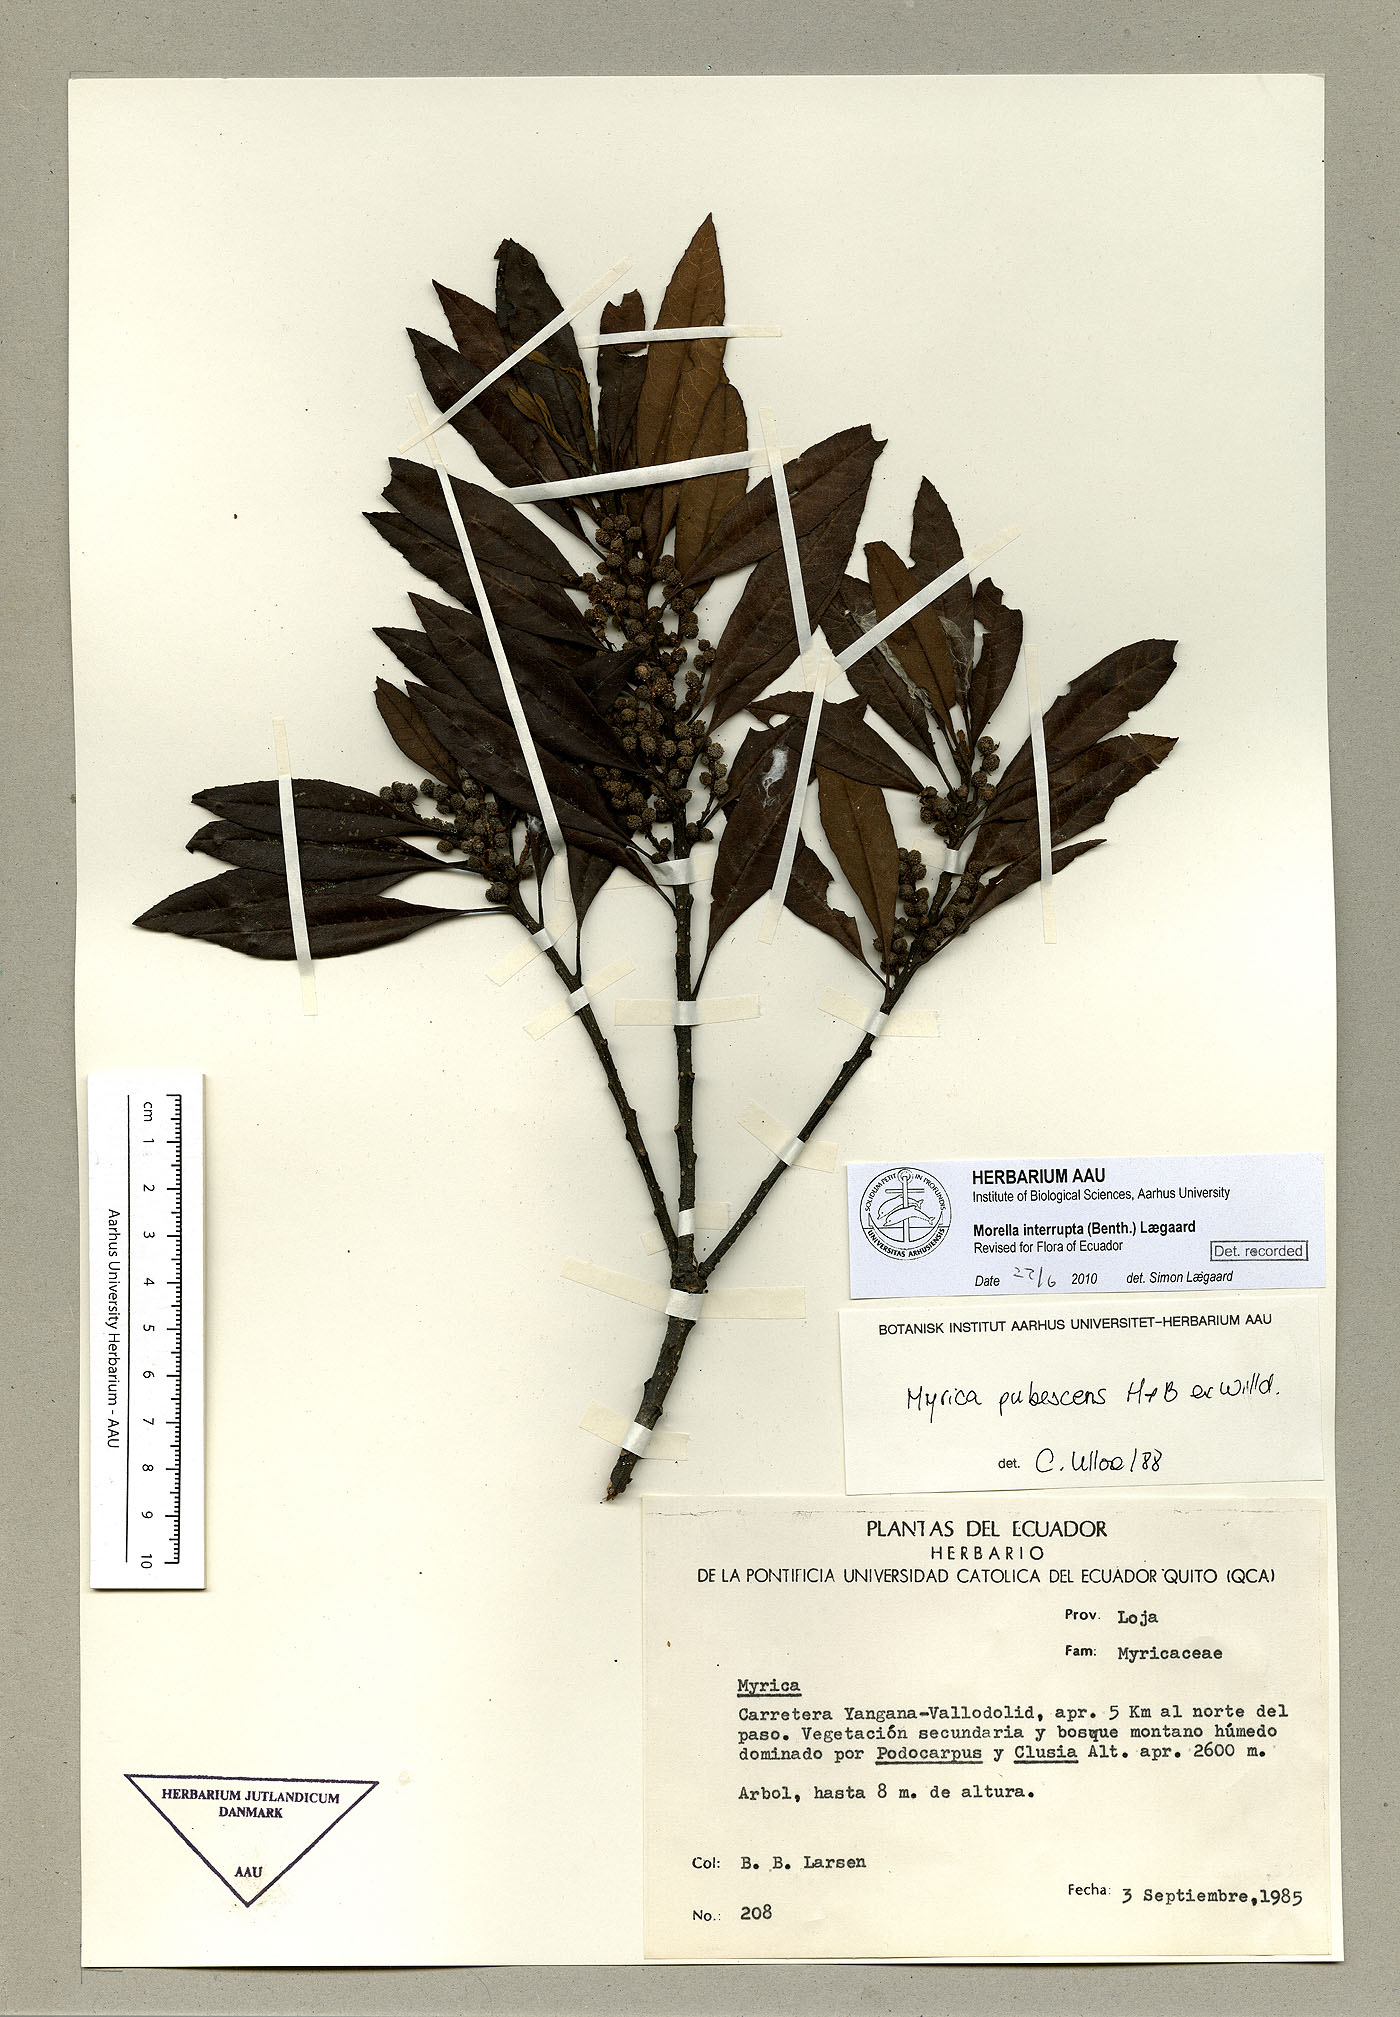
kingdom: Plantae
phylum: Tracheophyta
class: Magnoliopsida
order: Fagales
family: Myricaceae
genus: Morella
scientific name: Morella interrupta
